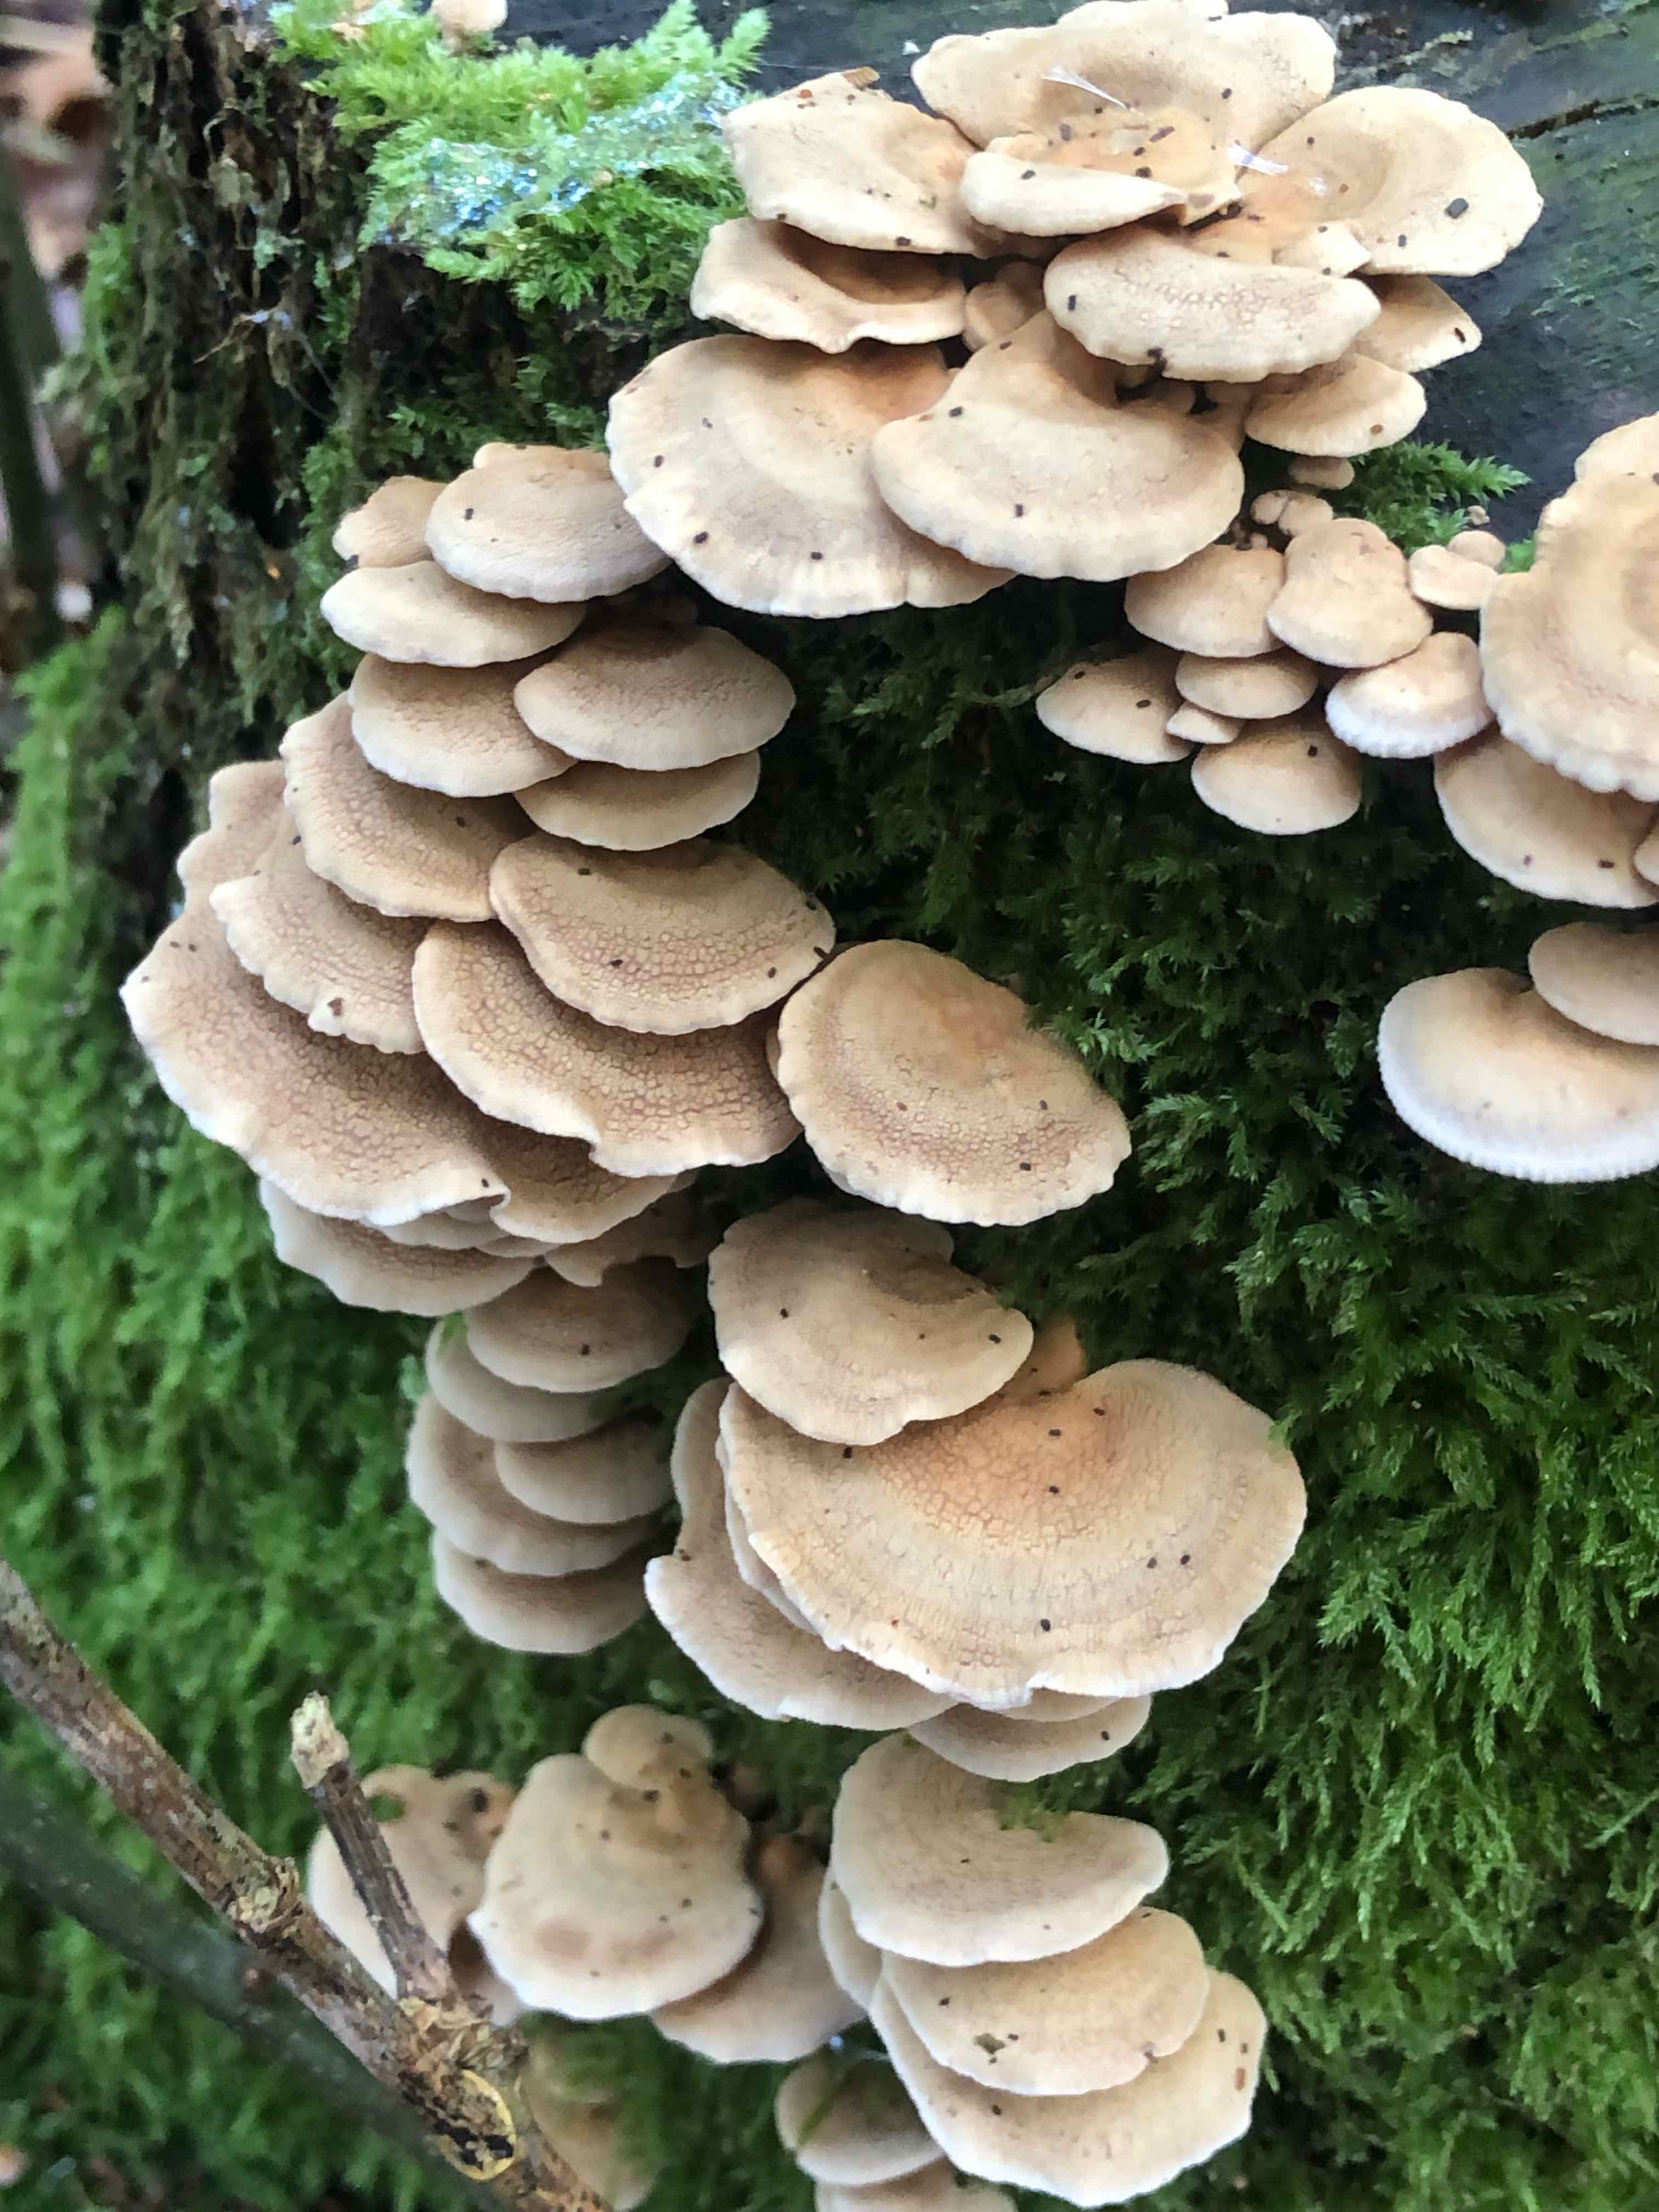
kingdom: Fungi
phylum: Basidiomycota
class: Agaricomycetes
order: Agaricales
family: Mycenaceae
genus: Panellus
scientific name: Panellus stipticus
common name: kliddet epaulethat
